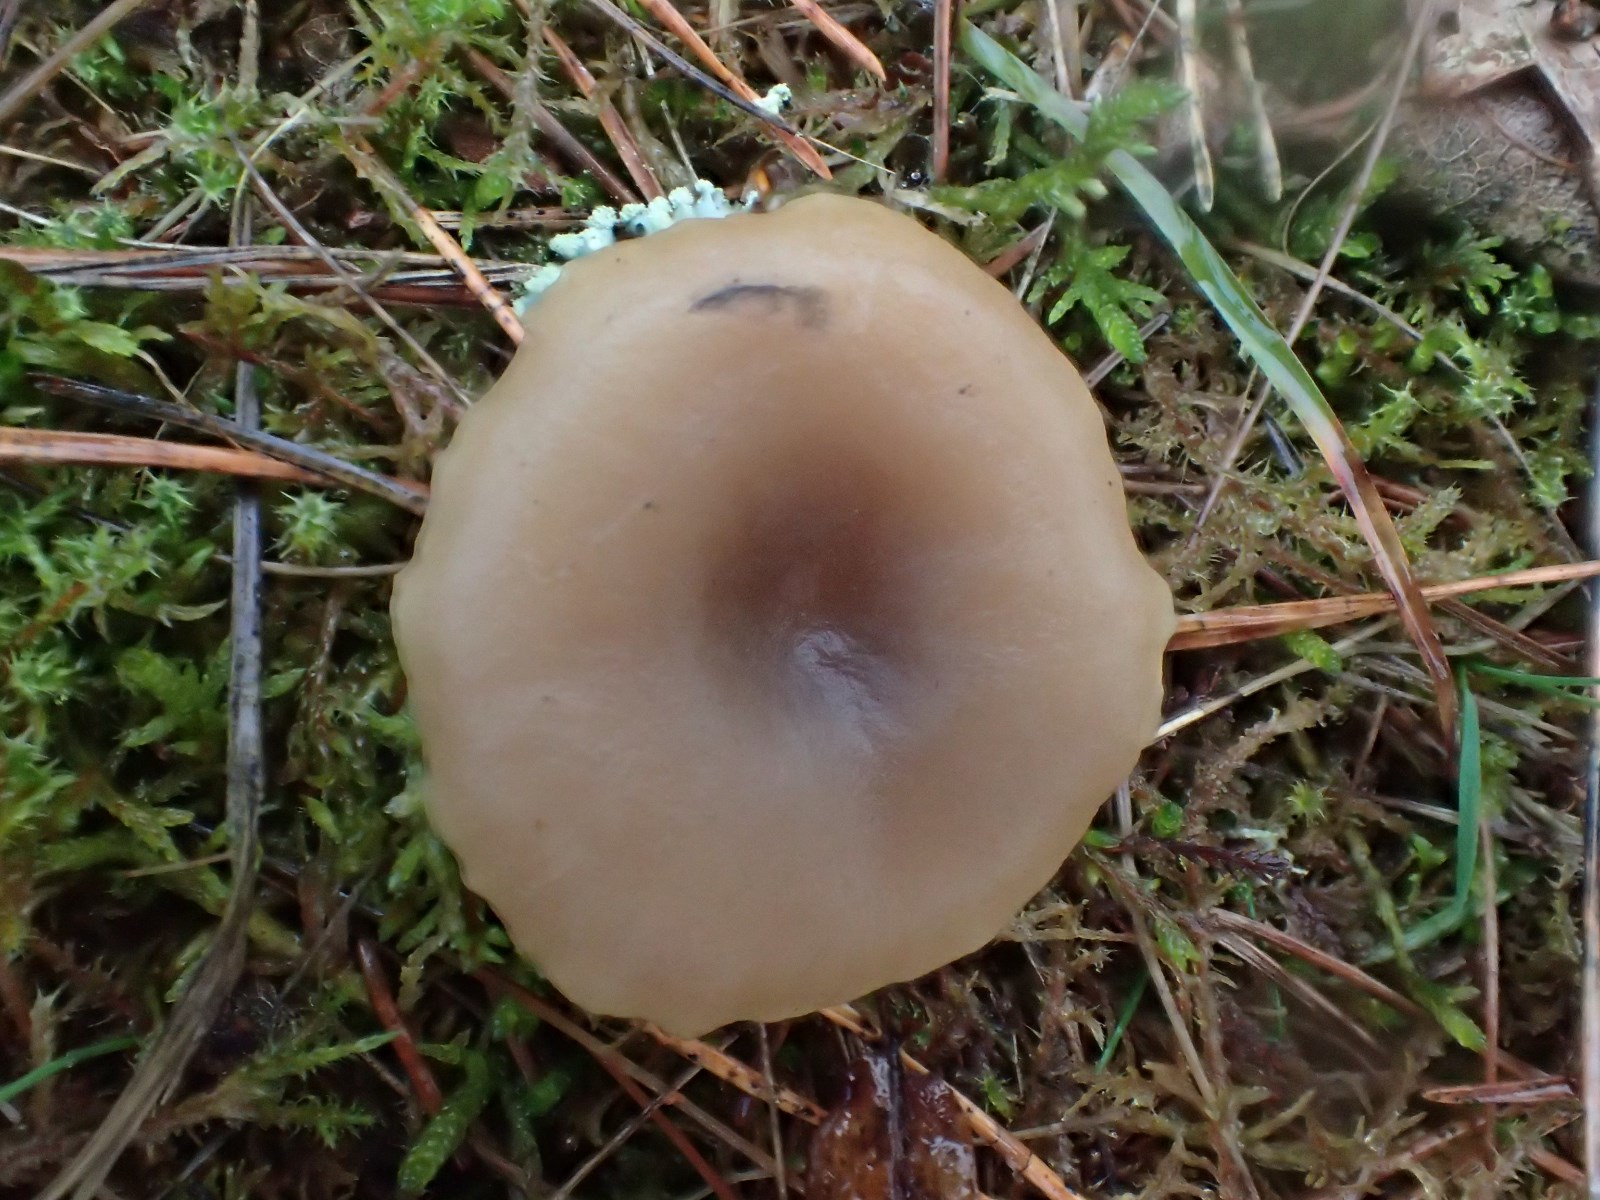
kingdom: Fungi
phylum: Basidiomycota
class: Agaricomycetes
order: Agaricales
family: Tricholomataceae
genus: Clitocybe
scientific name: Clitocybe
